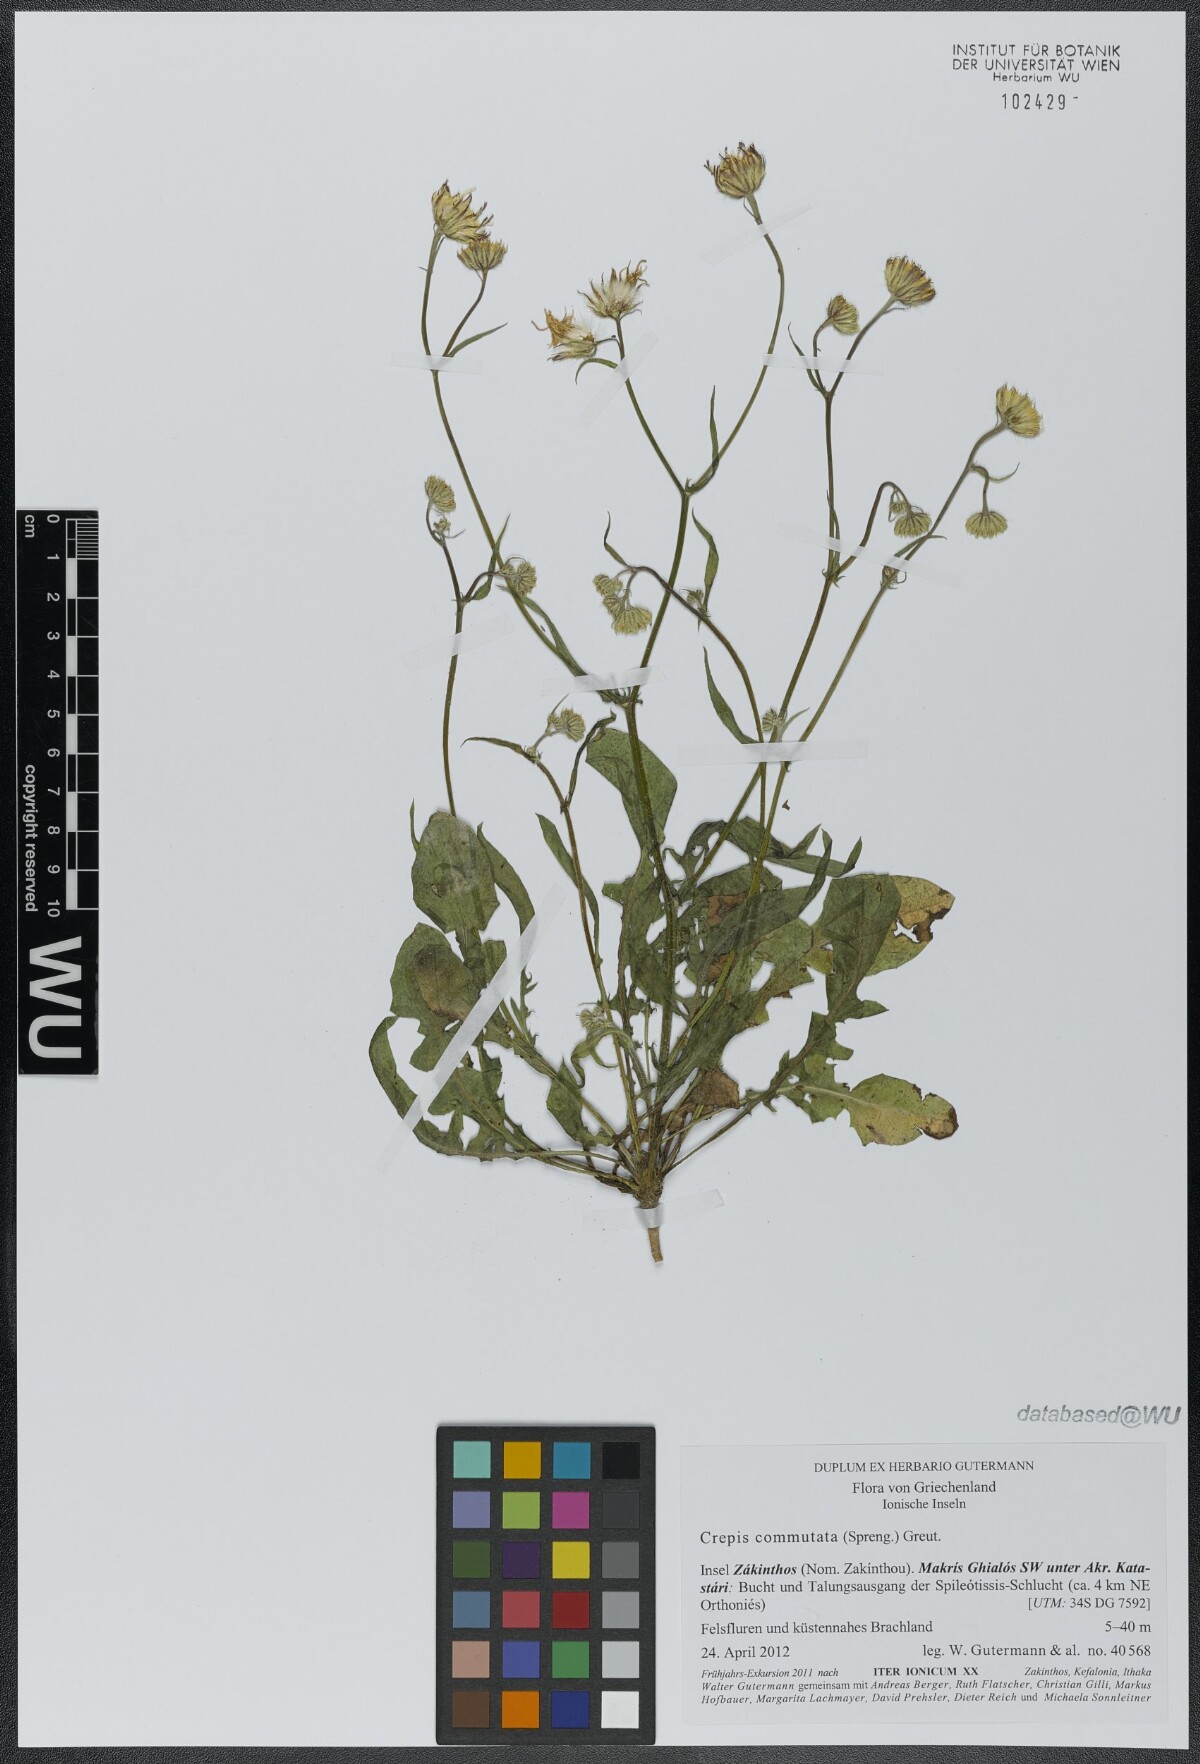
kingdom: Plantae
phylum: Tracheophyta
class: Magnoliopsida
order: Asterales
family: Asteraceae
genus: Crepis
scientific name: Crepis commutata
